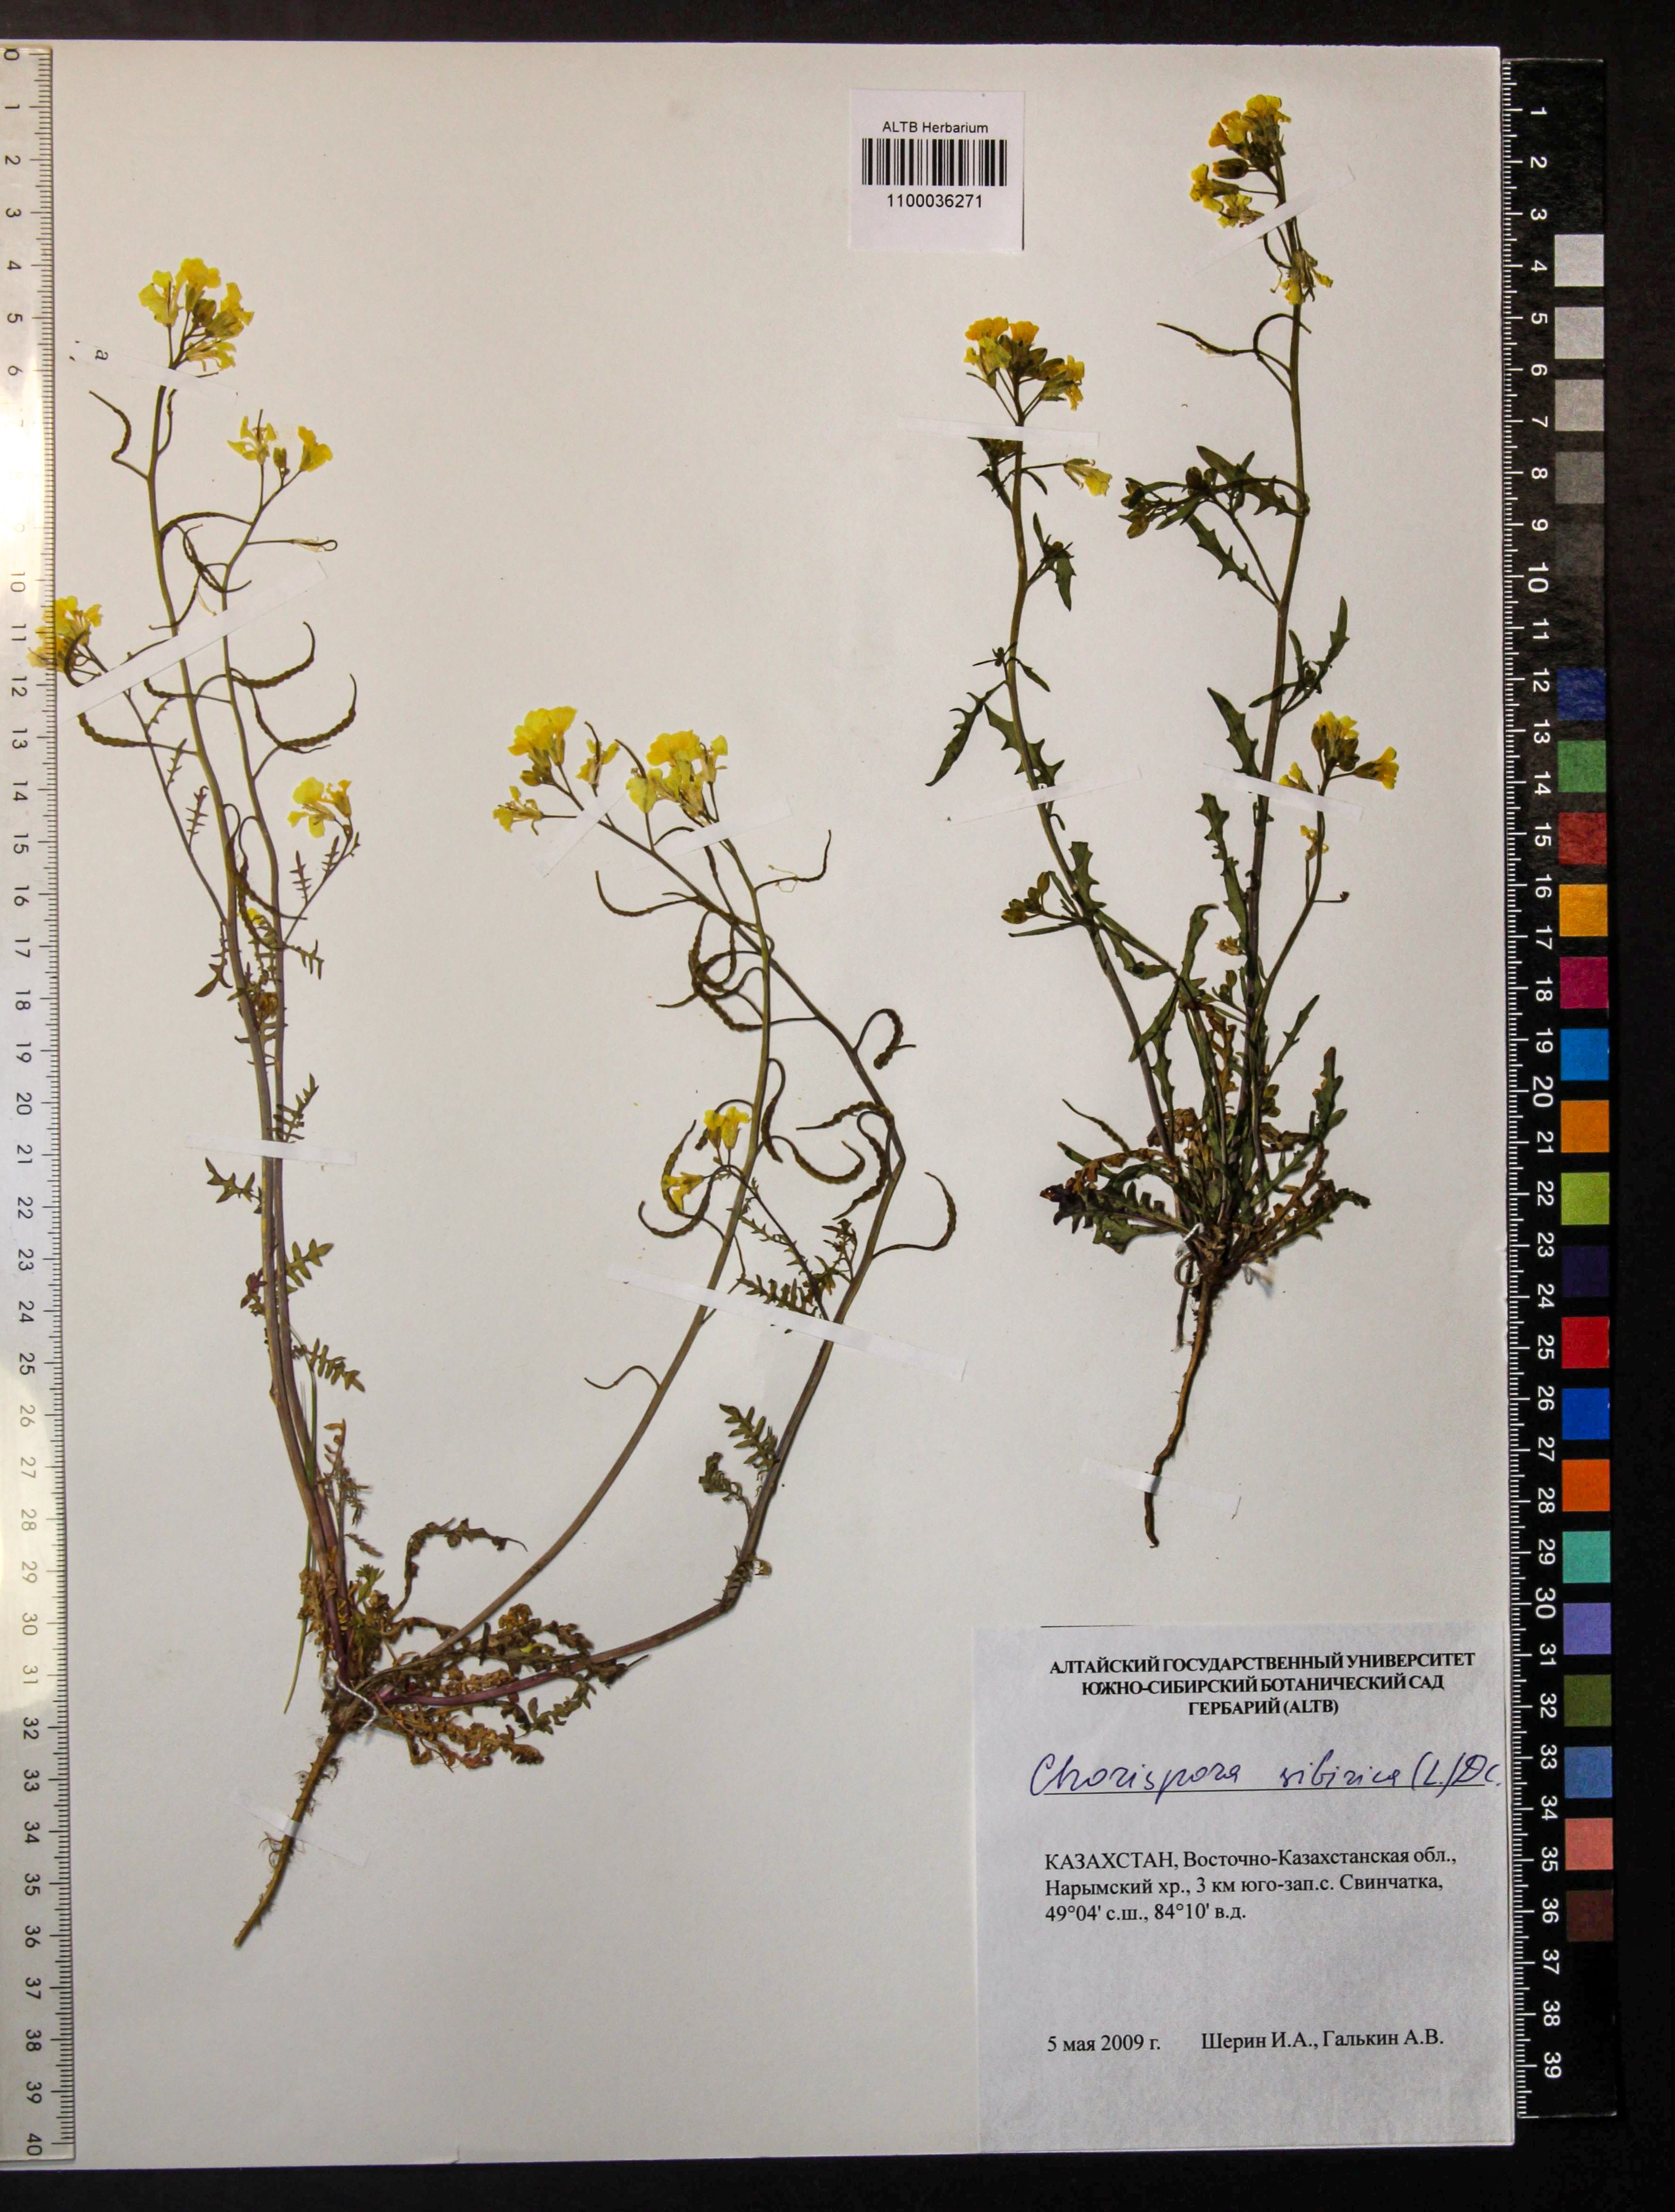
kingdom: Plantae
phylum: Tracheophyta
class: Magnoliopsida
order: Brassicales
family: Brassicaceae
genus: Chorispora
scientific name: Chorispora sibirica
